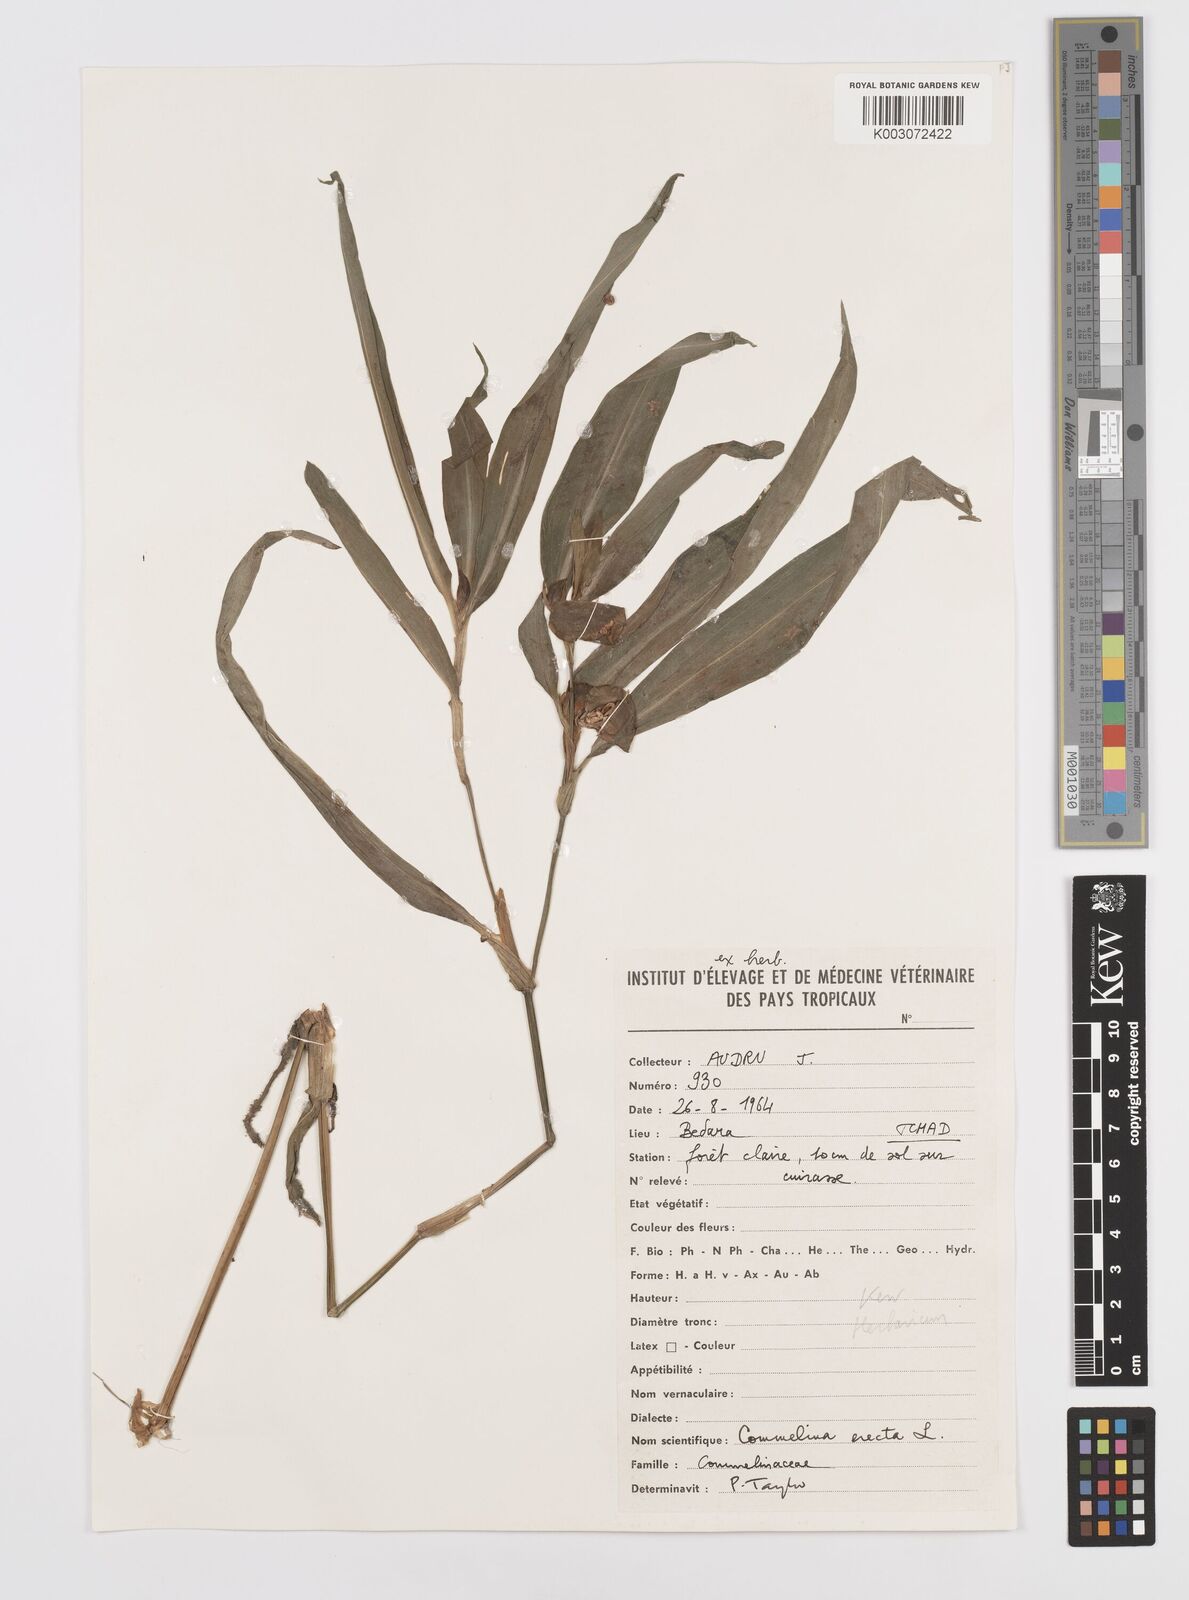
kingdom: Plantae
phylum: Tracheophyta
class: Liliopsida
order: Commelinales
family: Commelinaceae
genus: Commelina
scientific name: Commelina erecta
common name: Blousel blommetjie
